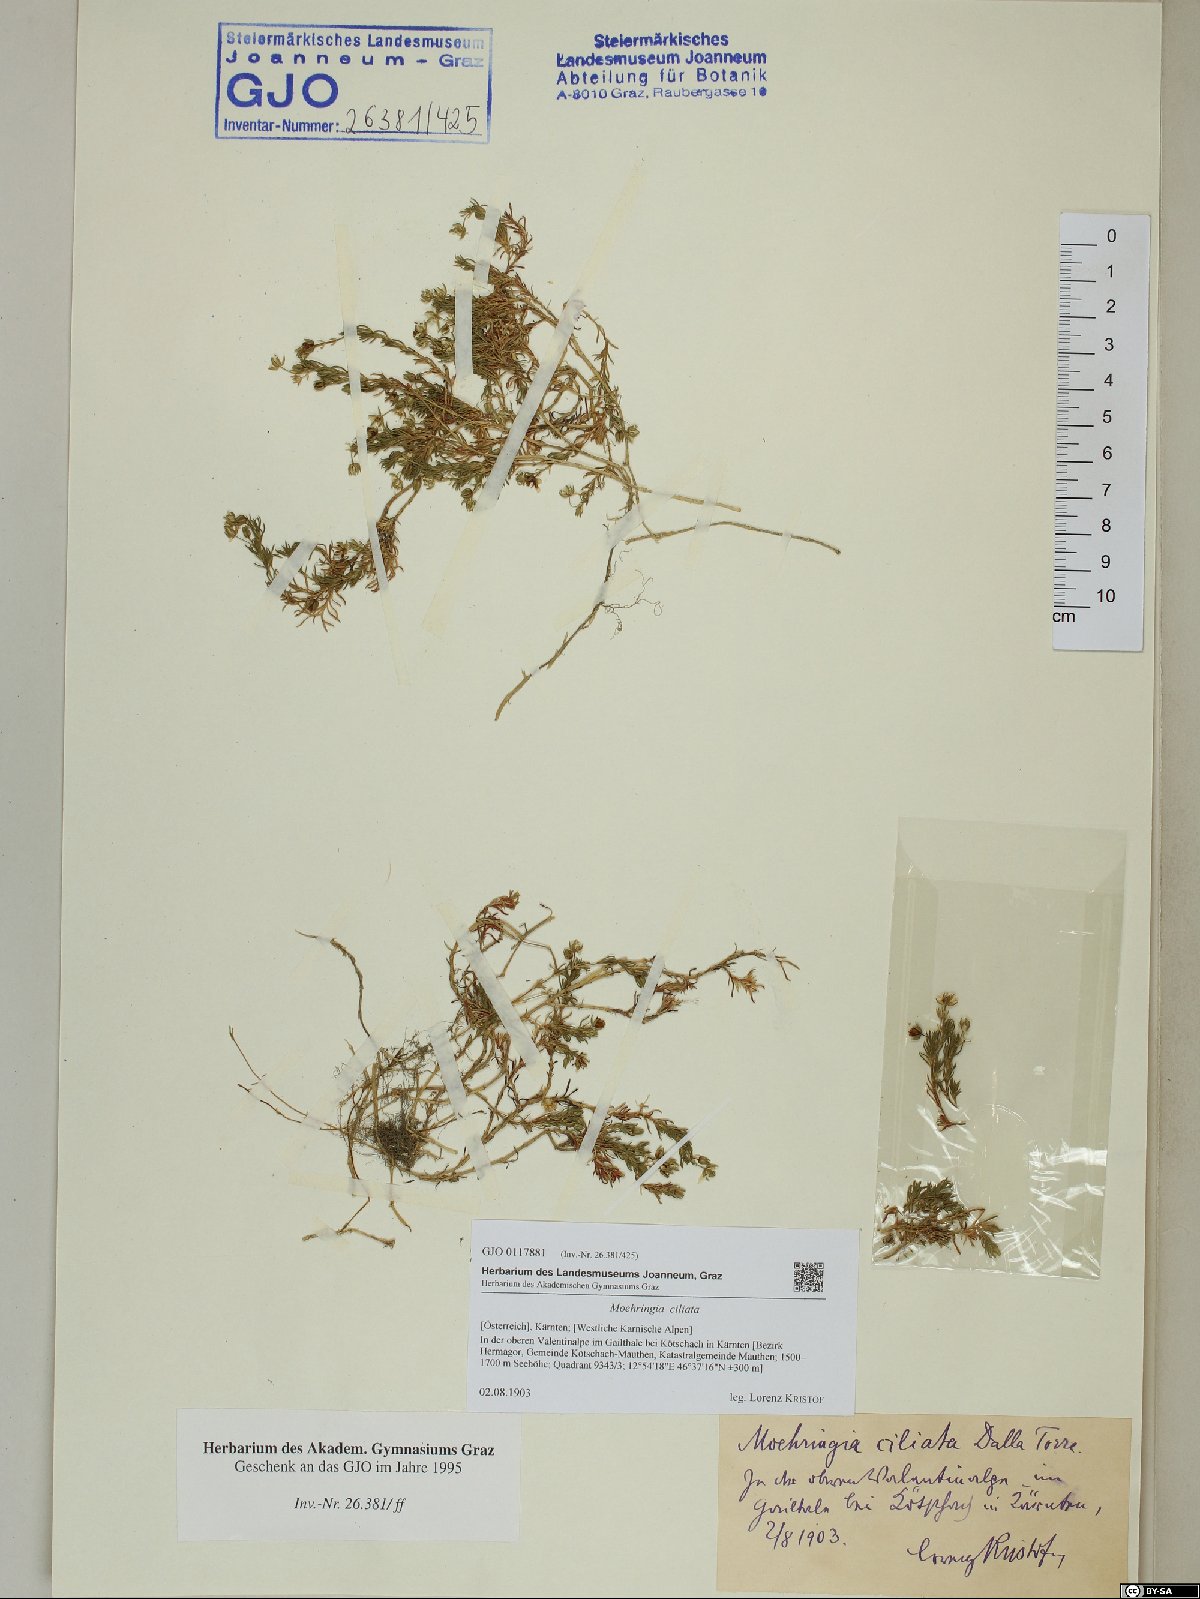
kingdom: Plantae
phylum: Tracheophyta
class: Magnoliopsida
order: Caryophyllales
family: Caryophyllaceae
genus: Moehringia
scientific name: Moehringia ciliata
